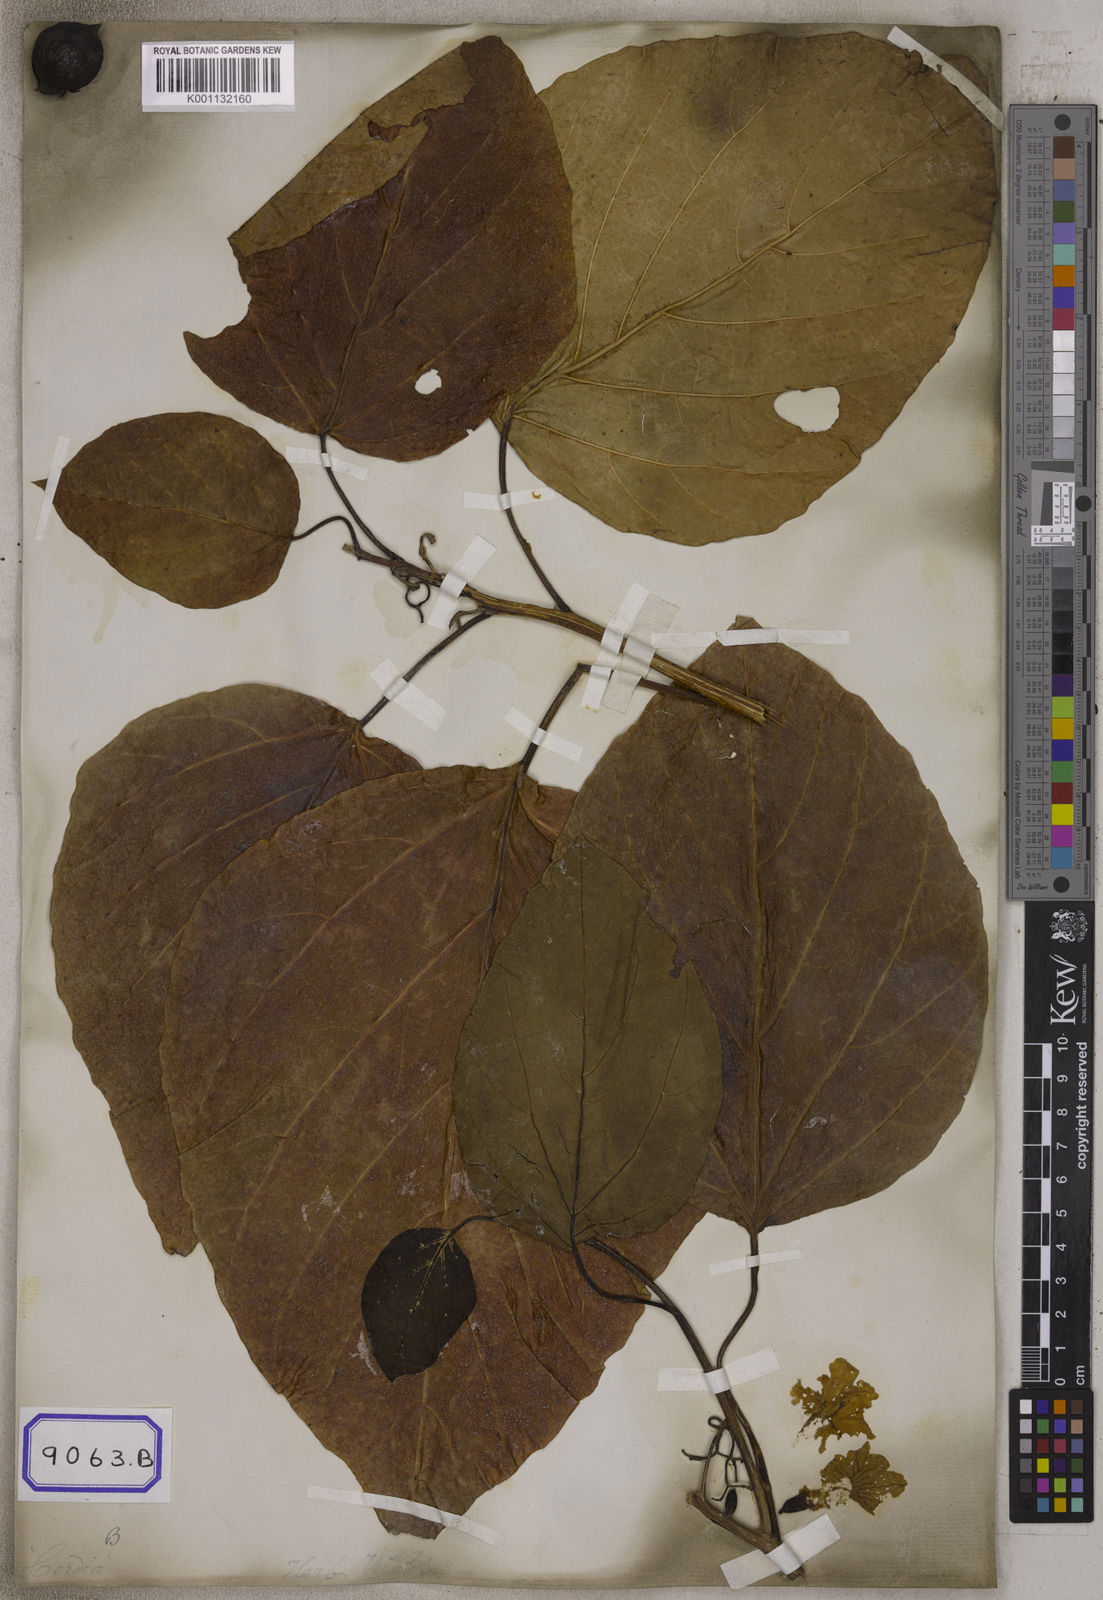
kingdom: Plantae
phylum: Tracheophyta
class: Magnoliopsida
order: Boraginales
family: Cordiaceae
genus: Cordia
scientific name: Cordia subcordata
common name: Mareer
